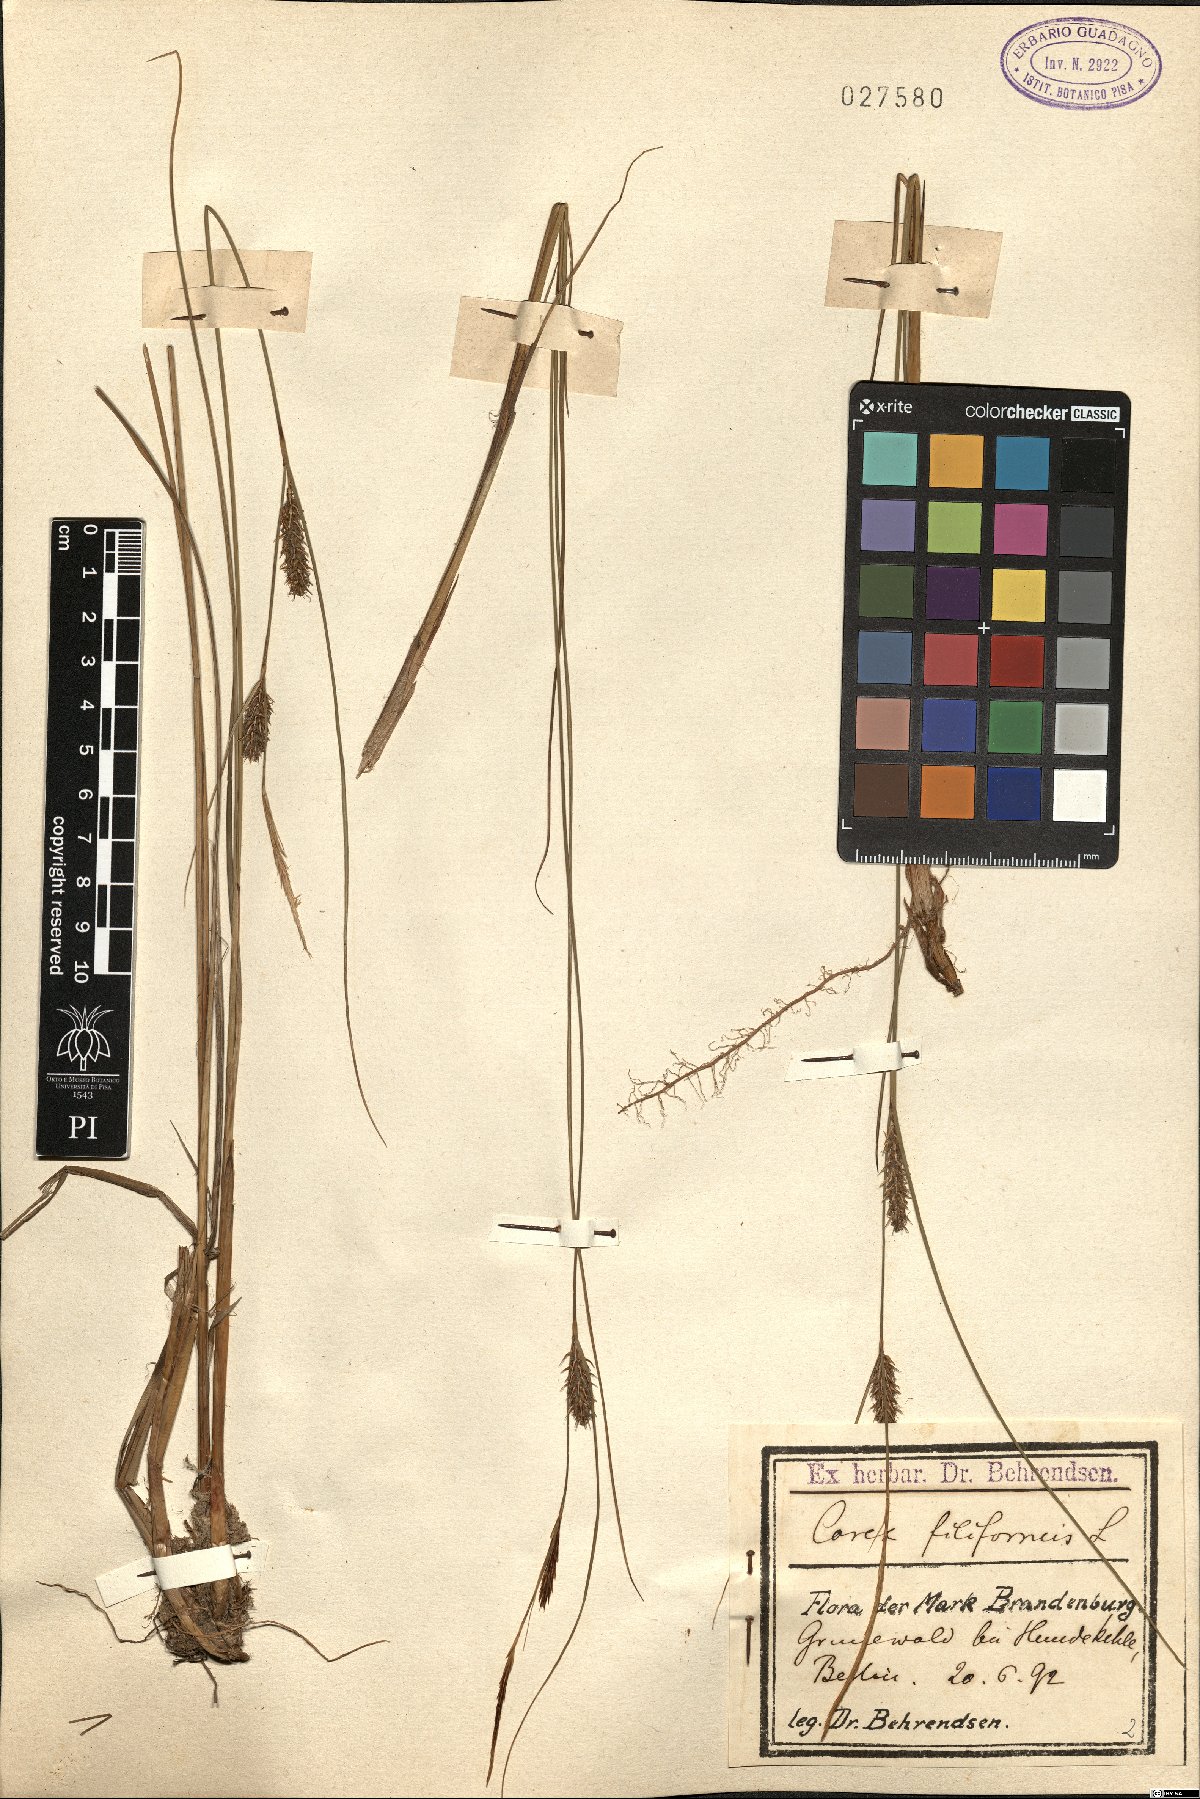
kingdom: Plantae
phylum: Tracheophyta
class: Liliopsida
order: Poales
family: Cyperaceae
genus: Carex
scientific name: Carex montana
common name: Soft-leaved sedge
